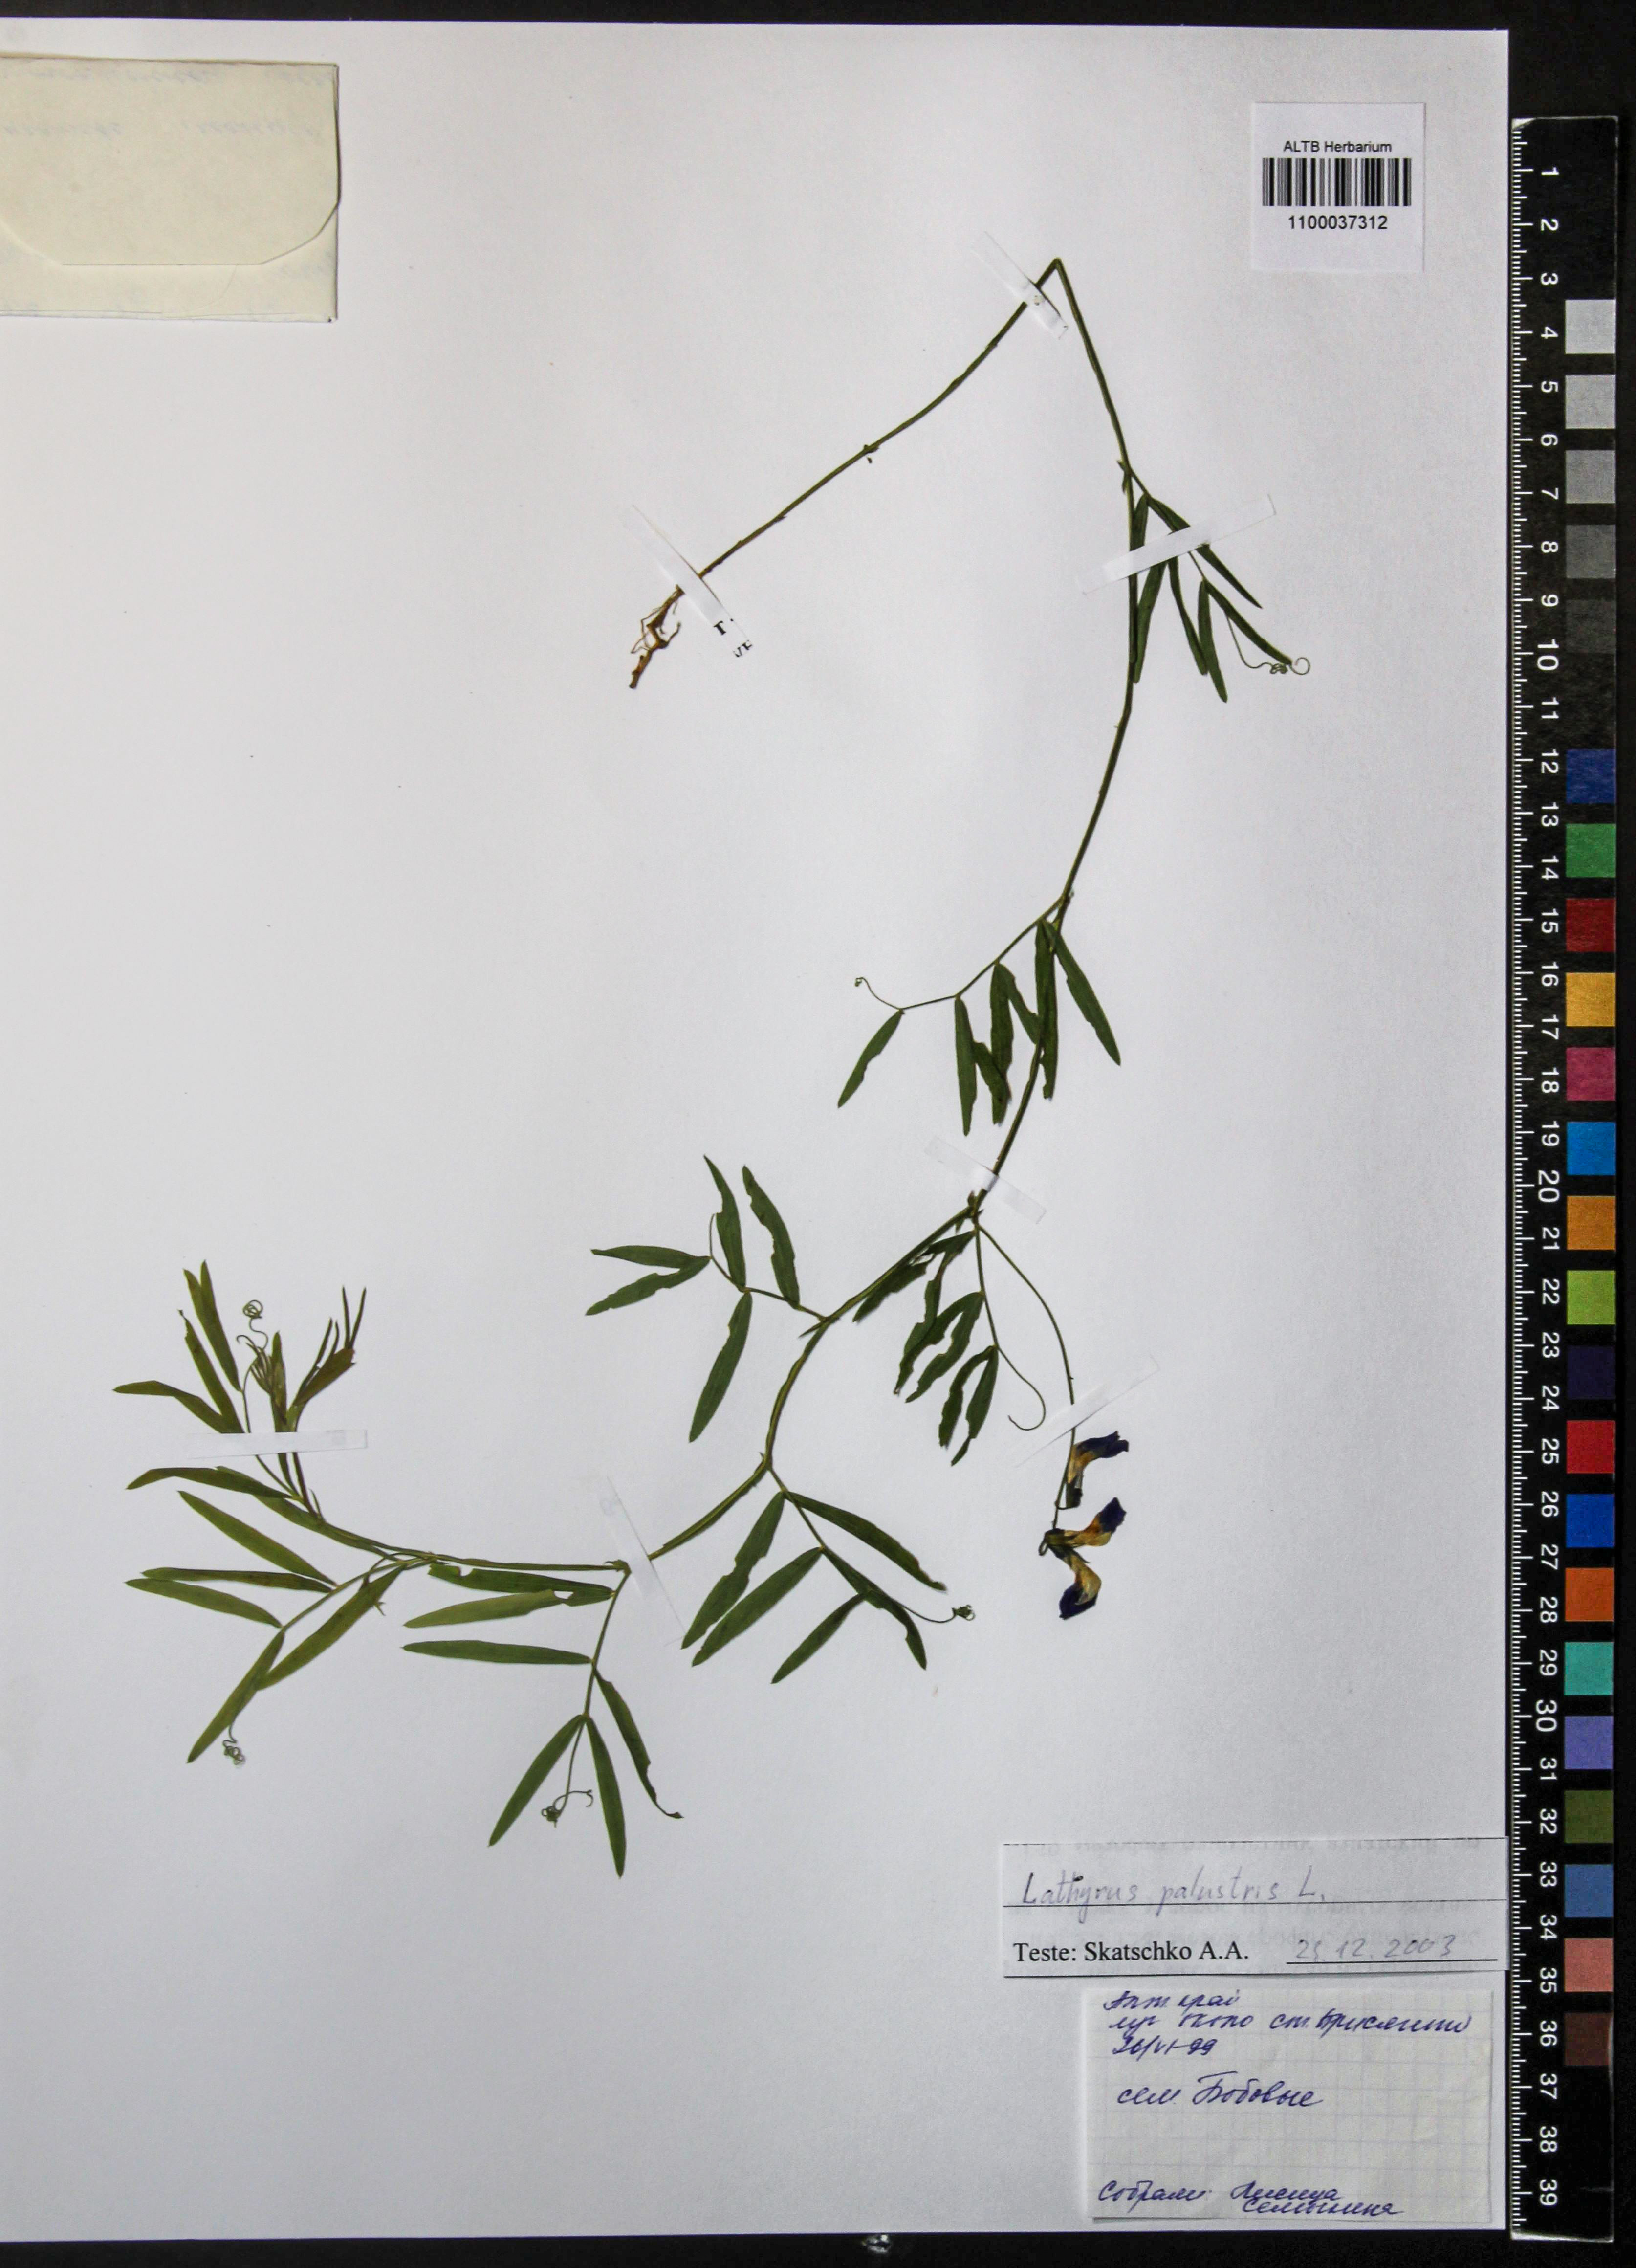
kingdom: Plantae
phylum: Tracheophyta
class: Magnoliopsida
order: Fabales
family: Fabaceae
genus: Lathyrus
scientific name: Lathyrus palustris
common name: Marsh pea
